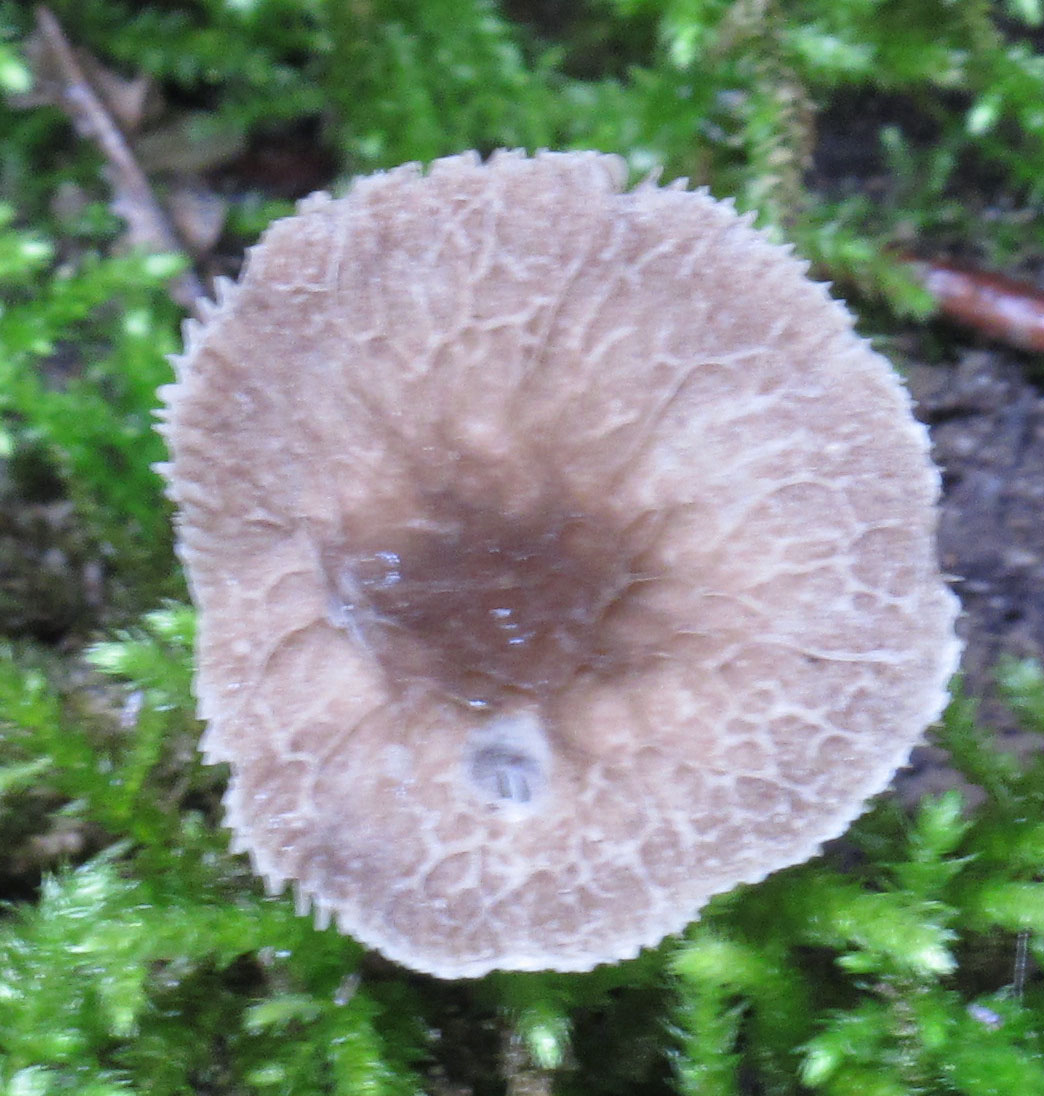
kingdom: Fungi
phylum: Basidiomycota
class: Agaricomycetes
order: Agaricales
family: Pluteaceae
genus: Pluteus
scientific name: Pluteus
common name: gråstokket skærmhat
